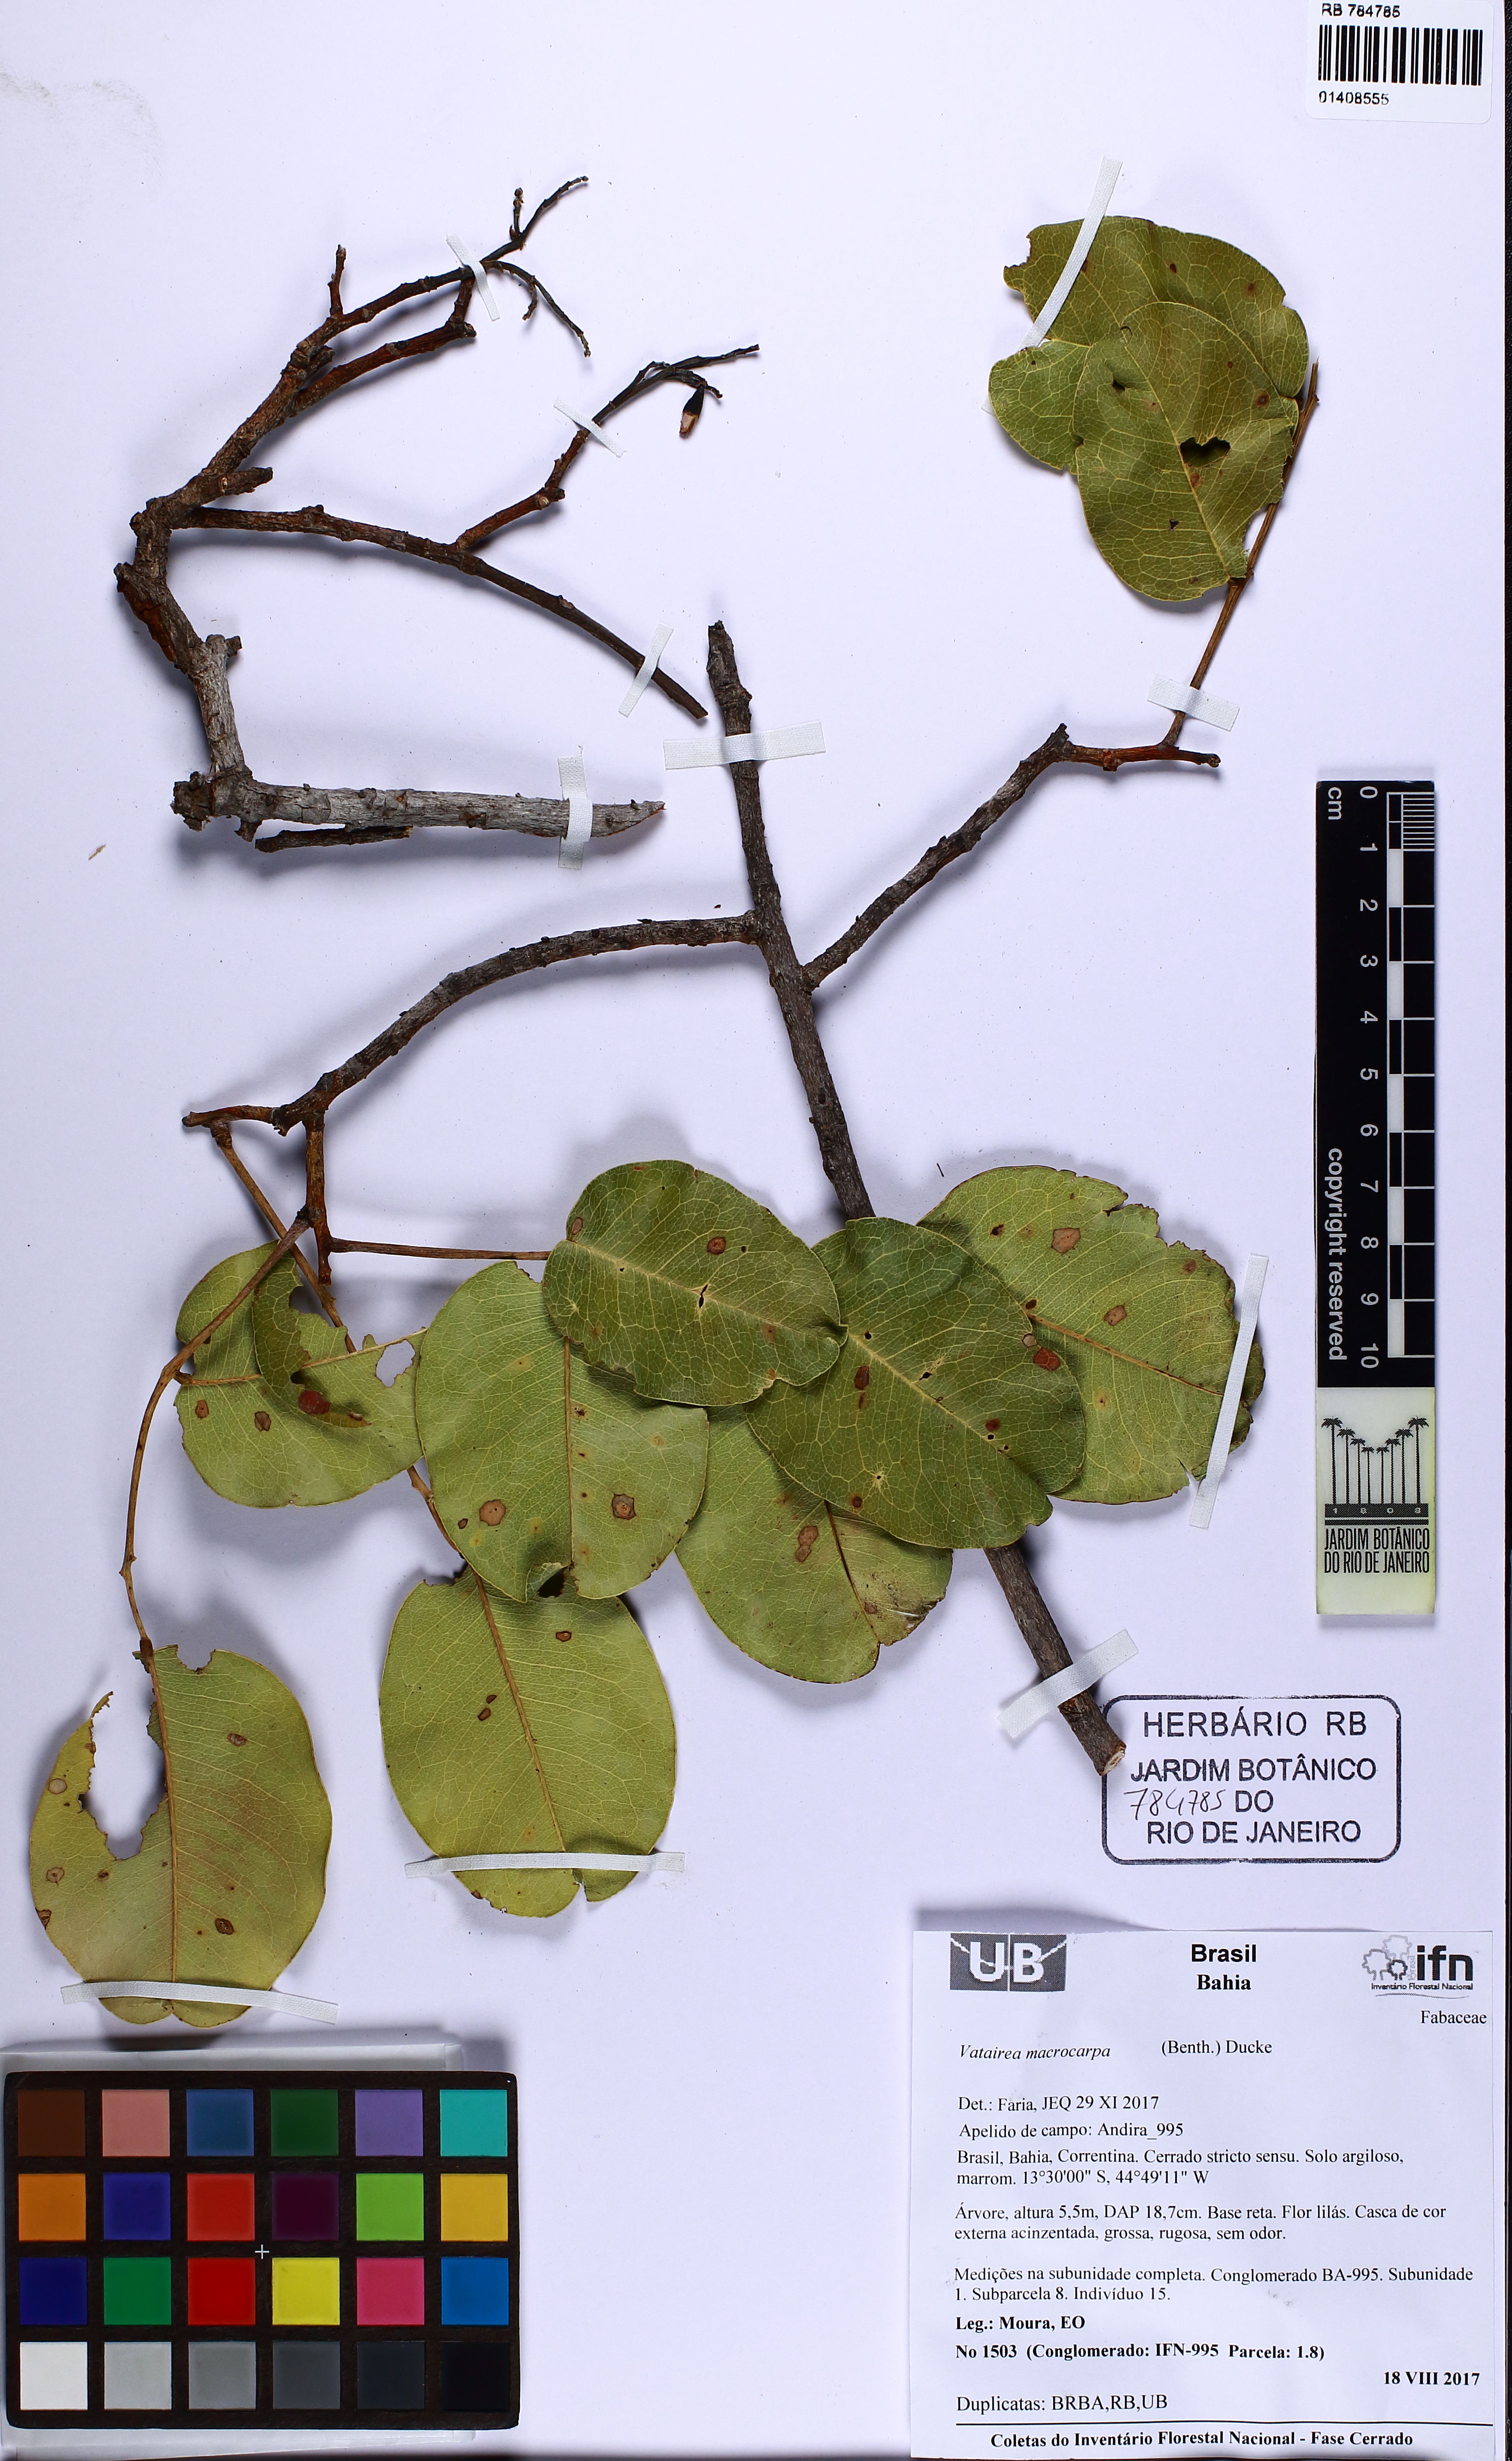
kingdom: Plantae
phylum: Tracheophyta
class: Magnoliopsida
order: Fabales
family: Fabaceae
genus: Vatairea
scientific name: Vatairea macrocarpa
